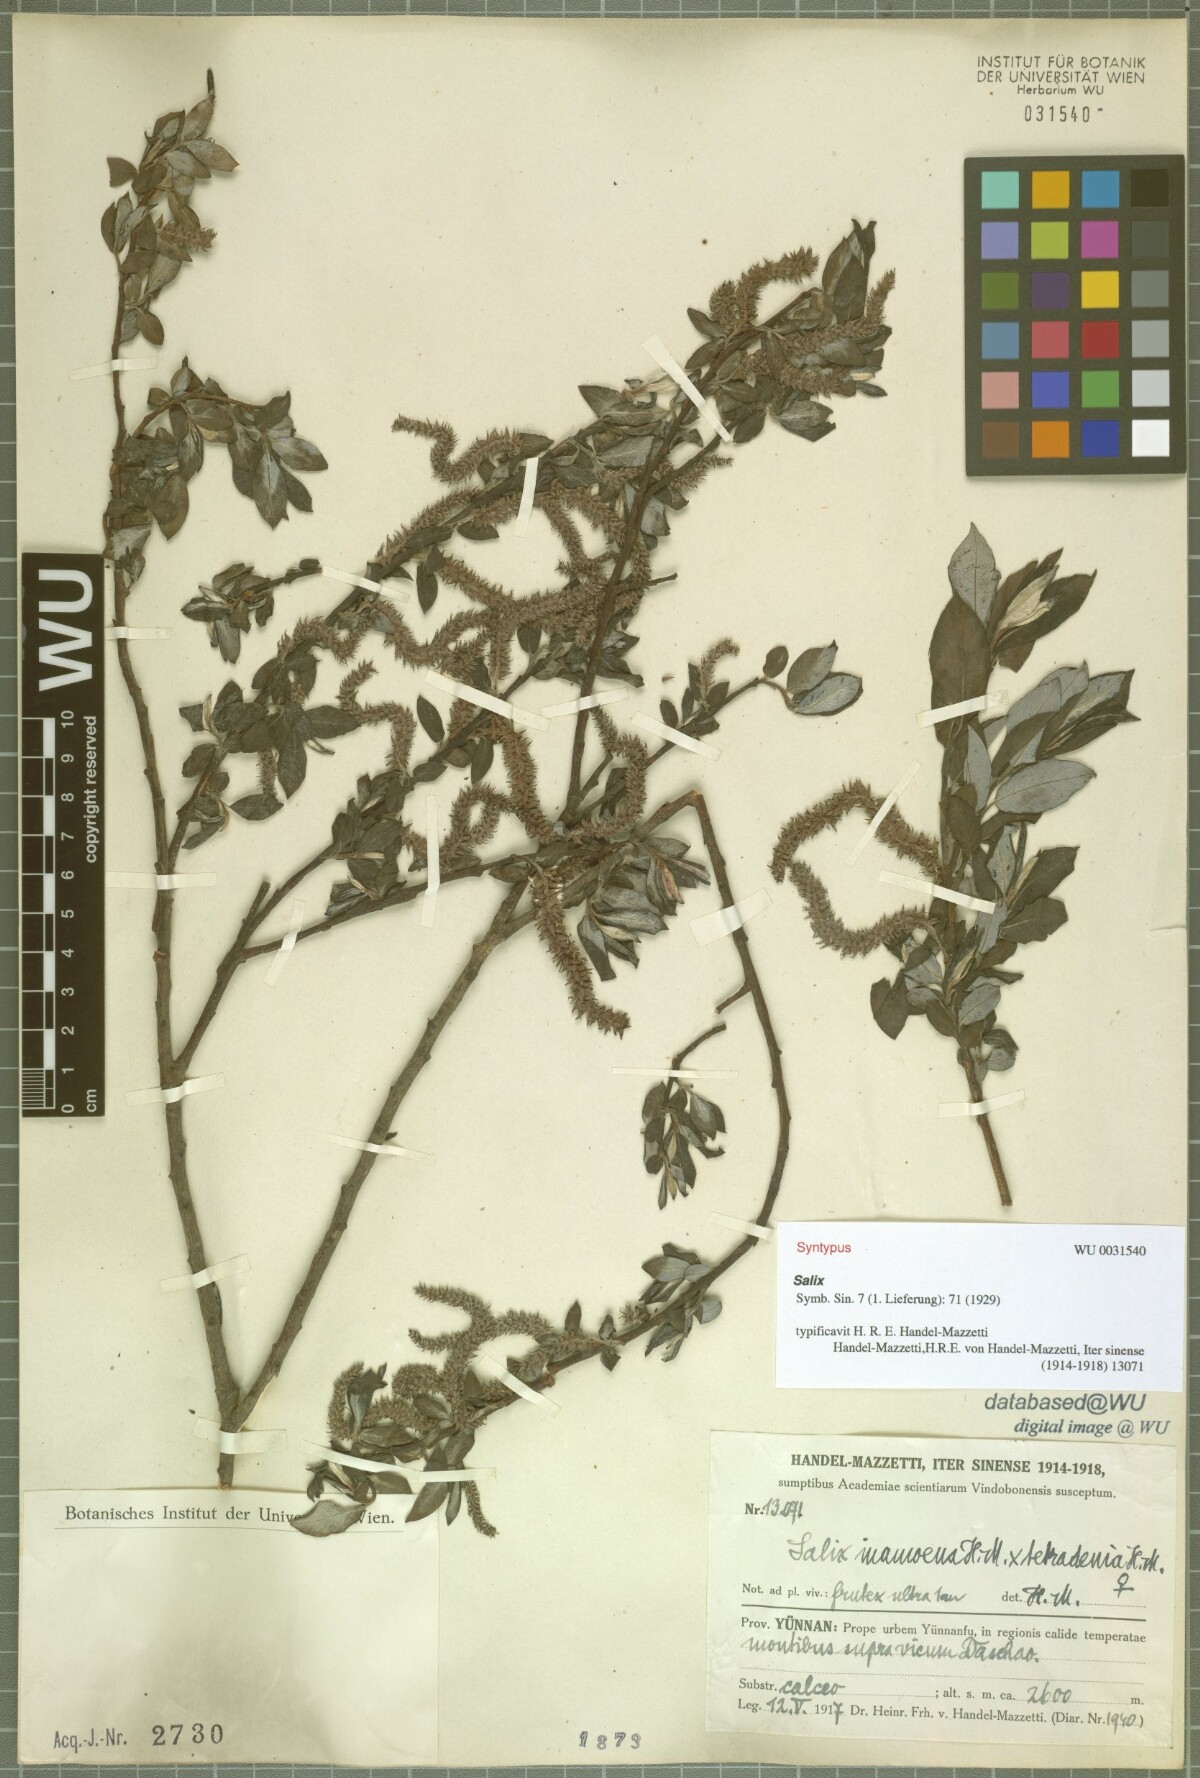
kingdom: Plantae
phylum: Tracheophyta
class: Magnoliopsida
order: Malpighiales
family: Salicaceae
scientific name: Salicaceae
